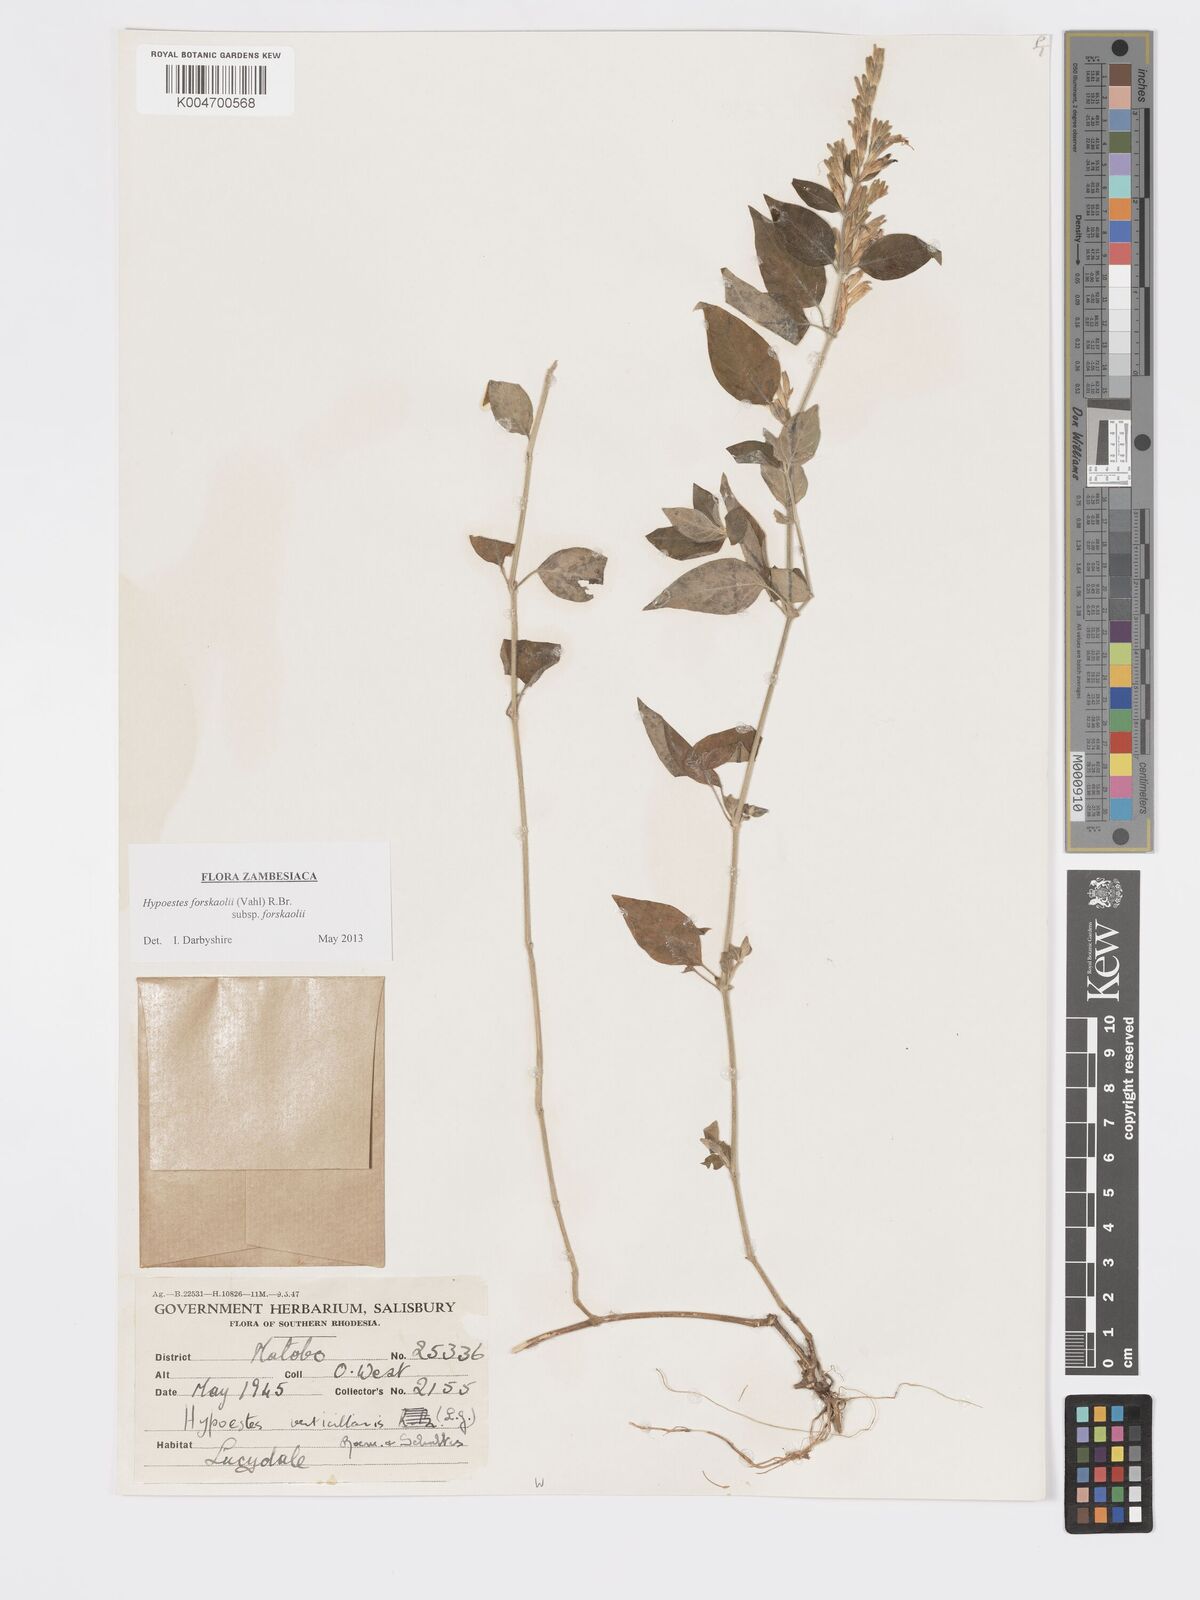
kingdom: Plantae
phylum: Tracheophyta
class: Magnoliopsida
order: Lamiales
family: Acanthaceae
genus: Hypoestes
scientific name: Hypoestes forskaolii
